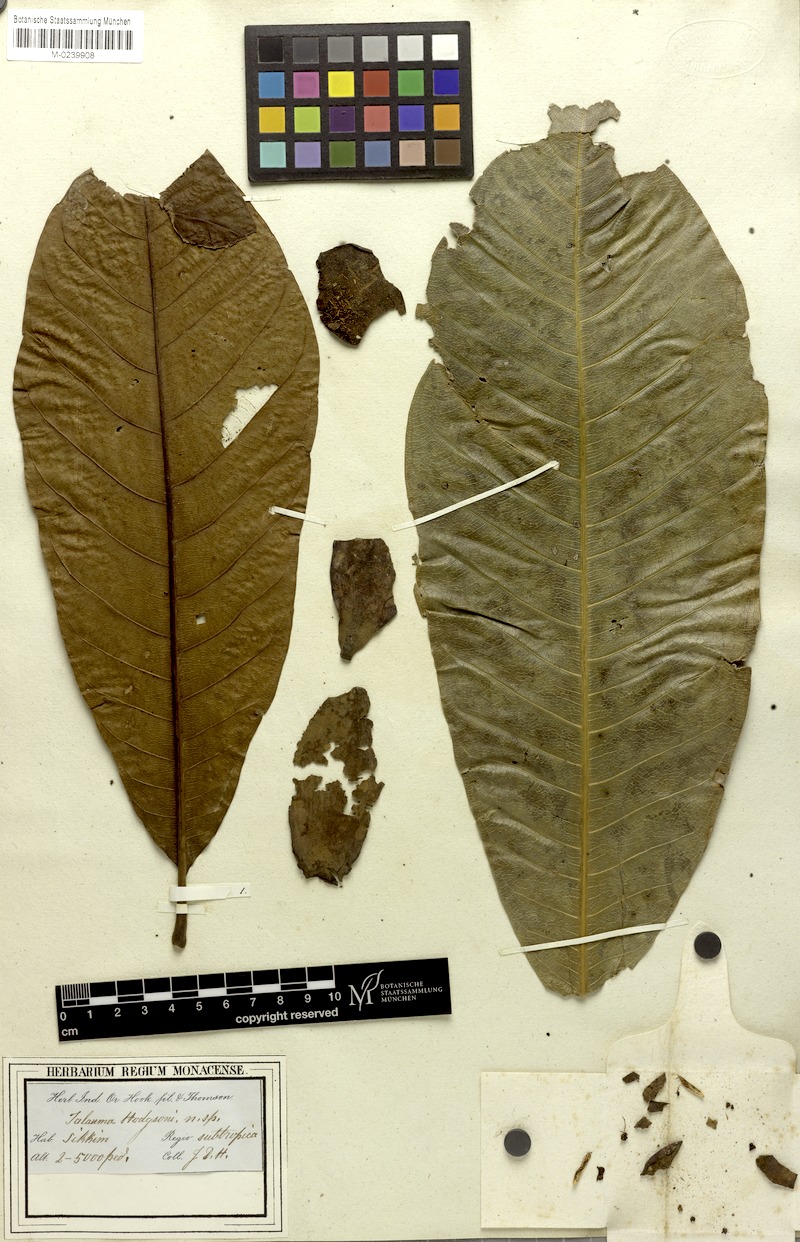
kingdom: Plantae
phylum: Tracheophyta
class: Magnoliopsida
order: Magnoliales
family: Magnoliaceae
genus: Magnolia
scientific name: Magnolia hodgsonii
